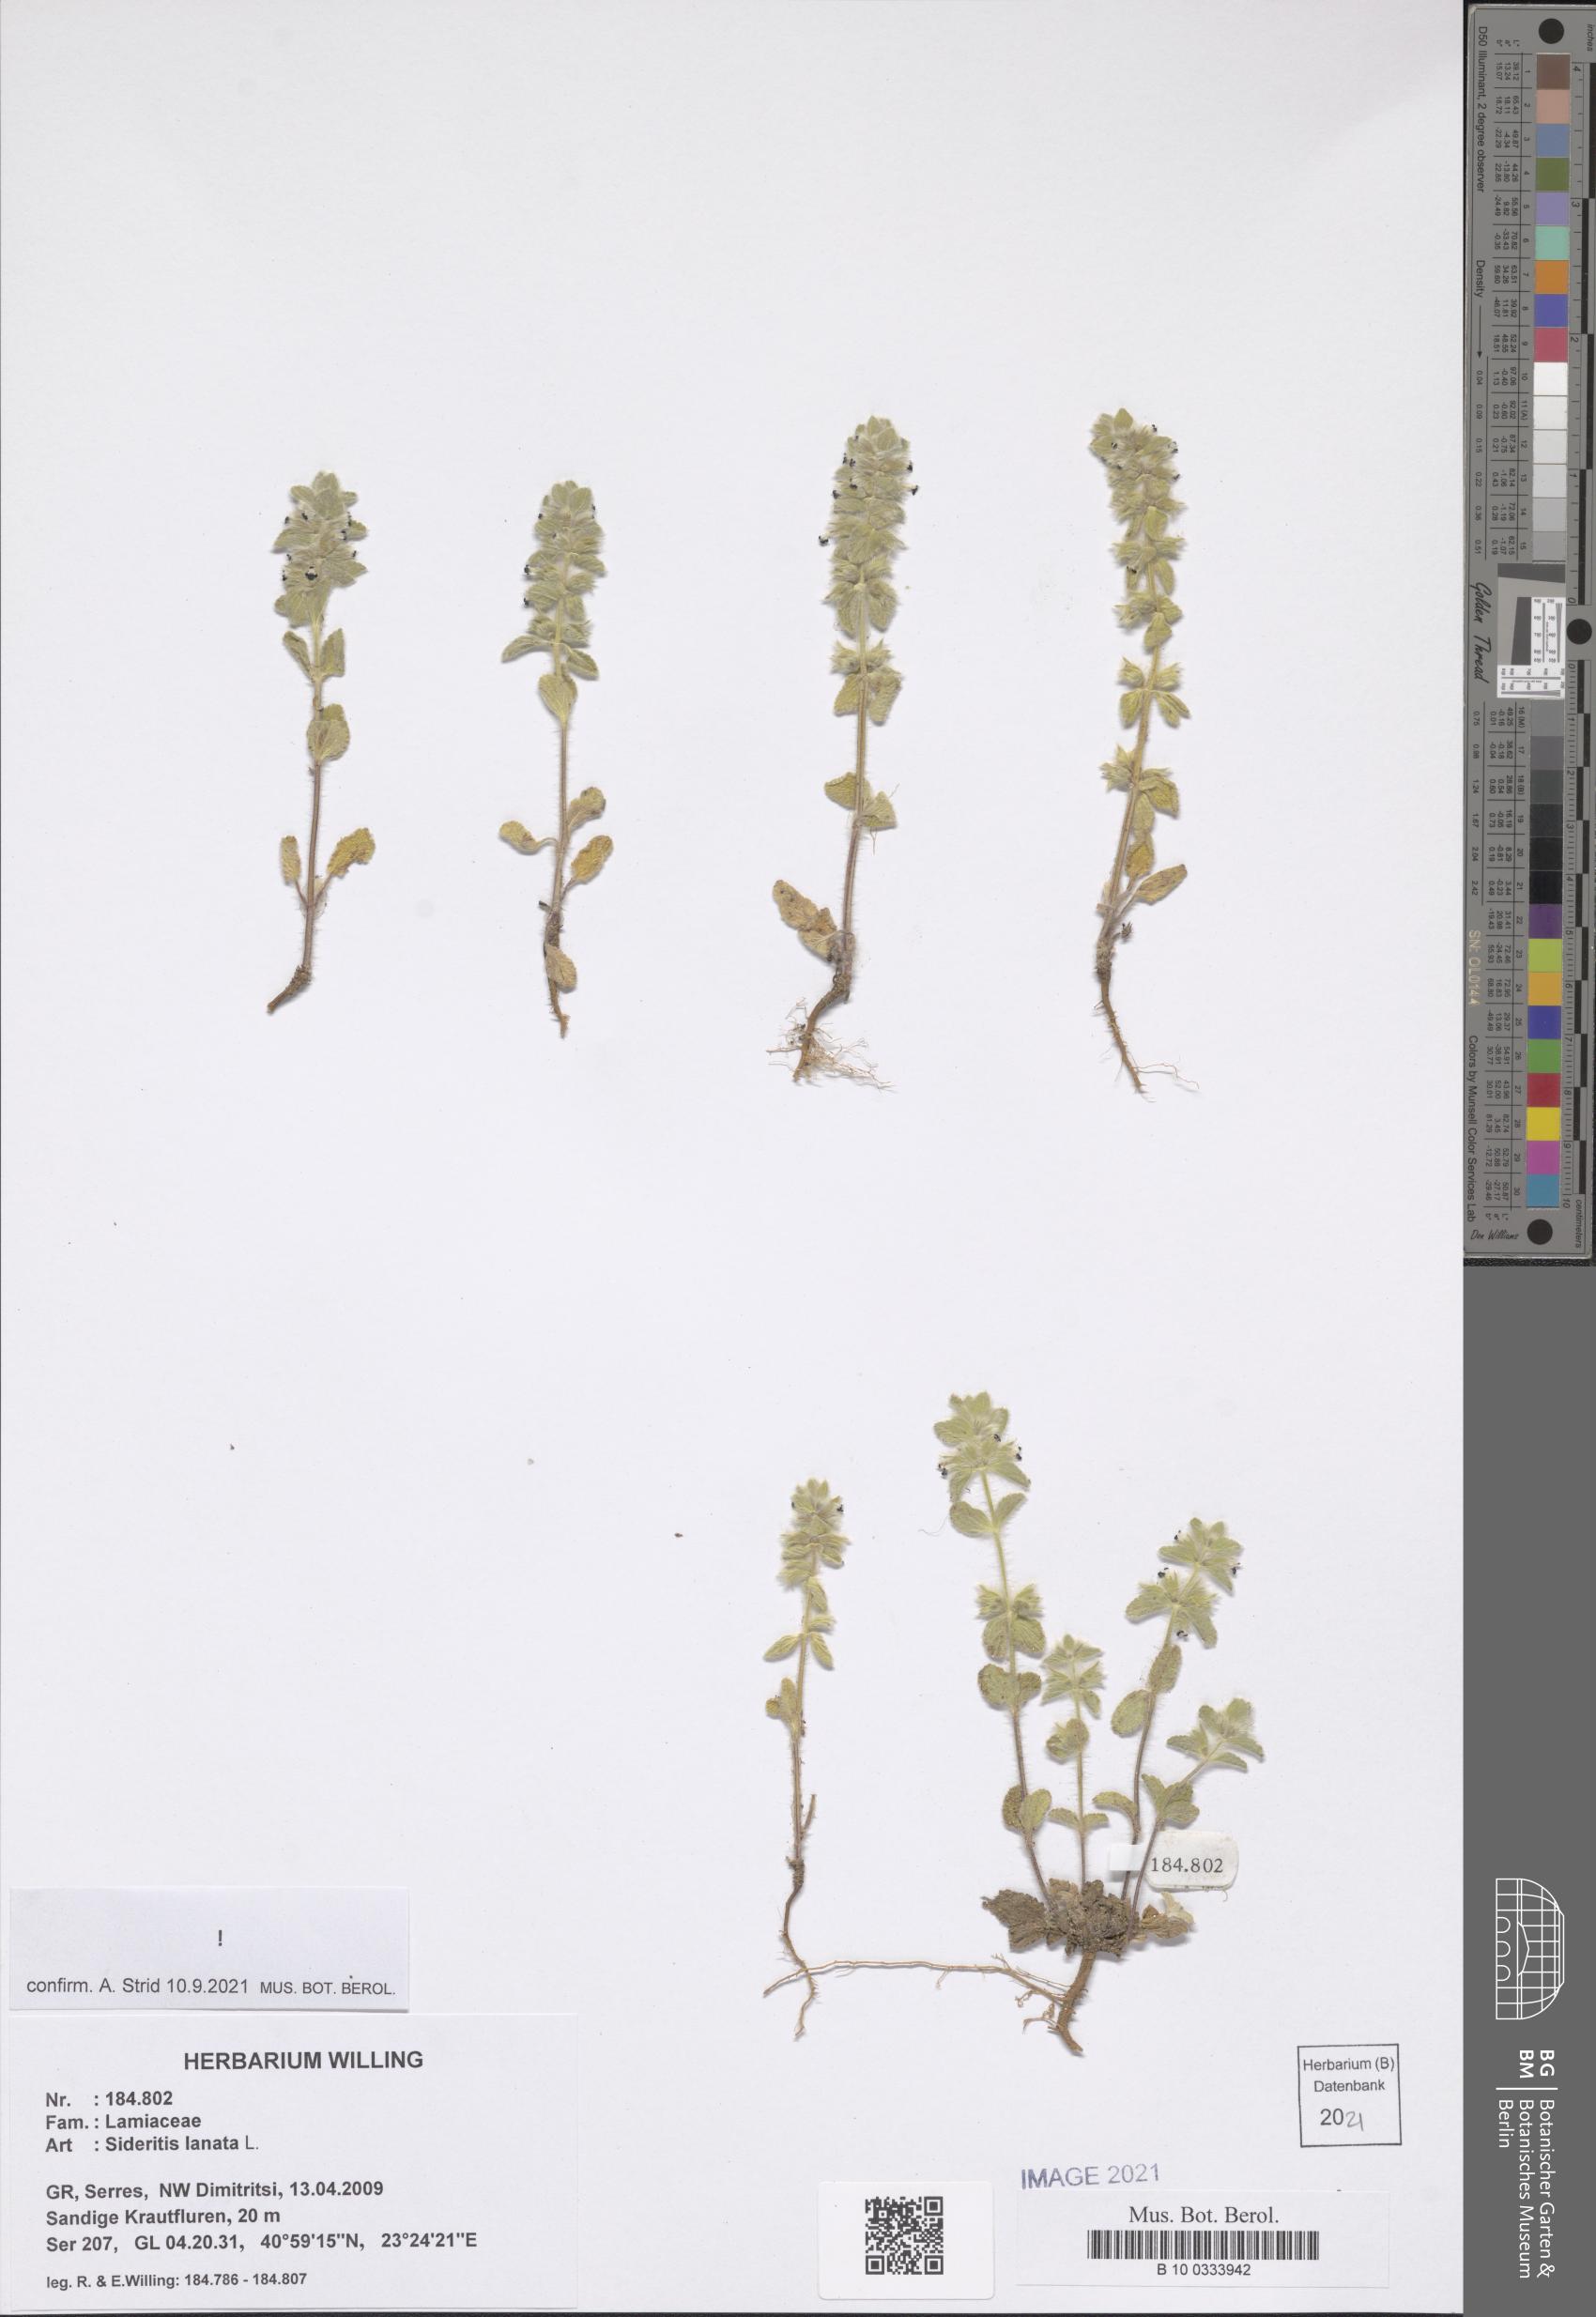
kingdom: Plantae
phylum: Tracheophyta
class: Magnoliopsida
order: Lamiales
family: Lamiaceae
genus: Sideritis
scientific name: Sideritis lanata
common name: Hairy ironwort
